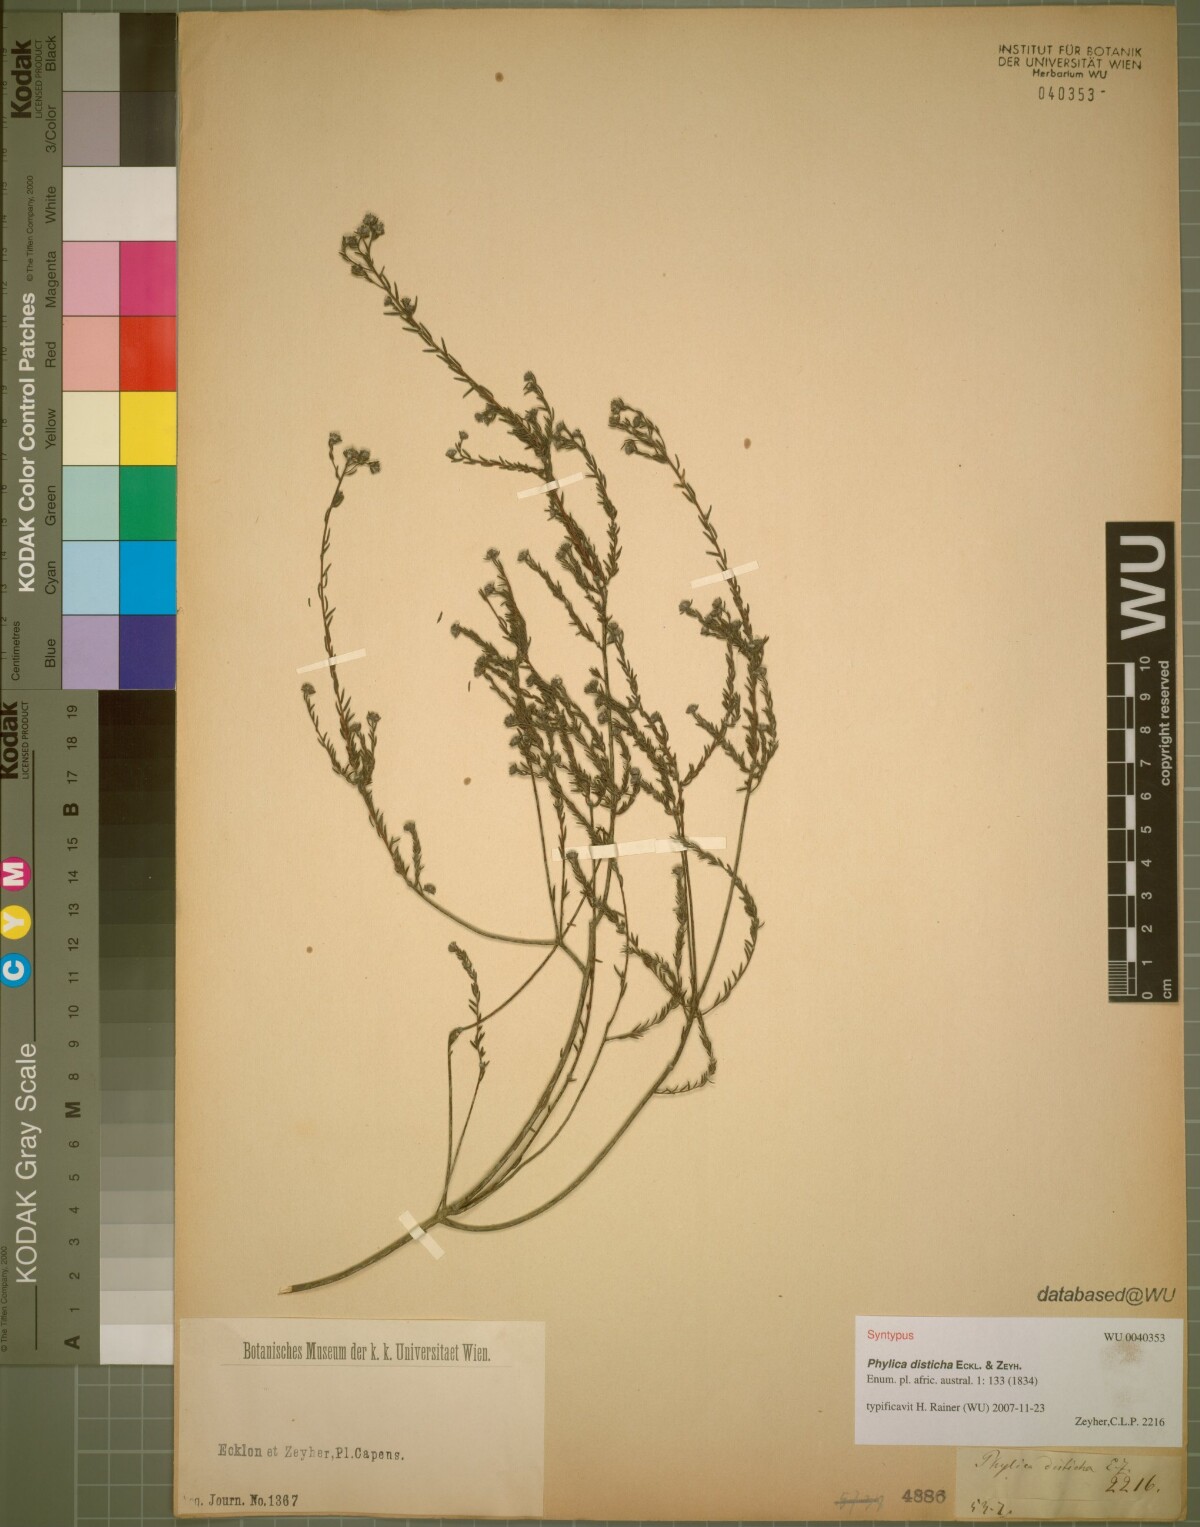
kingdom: Plantae
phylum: Tracheophyta
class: Magnoliopsida
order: Rosales
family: Rhamnaceae
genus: Phylica
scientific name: Phylica disticha
